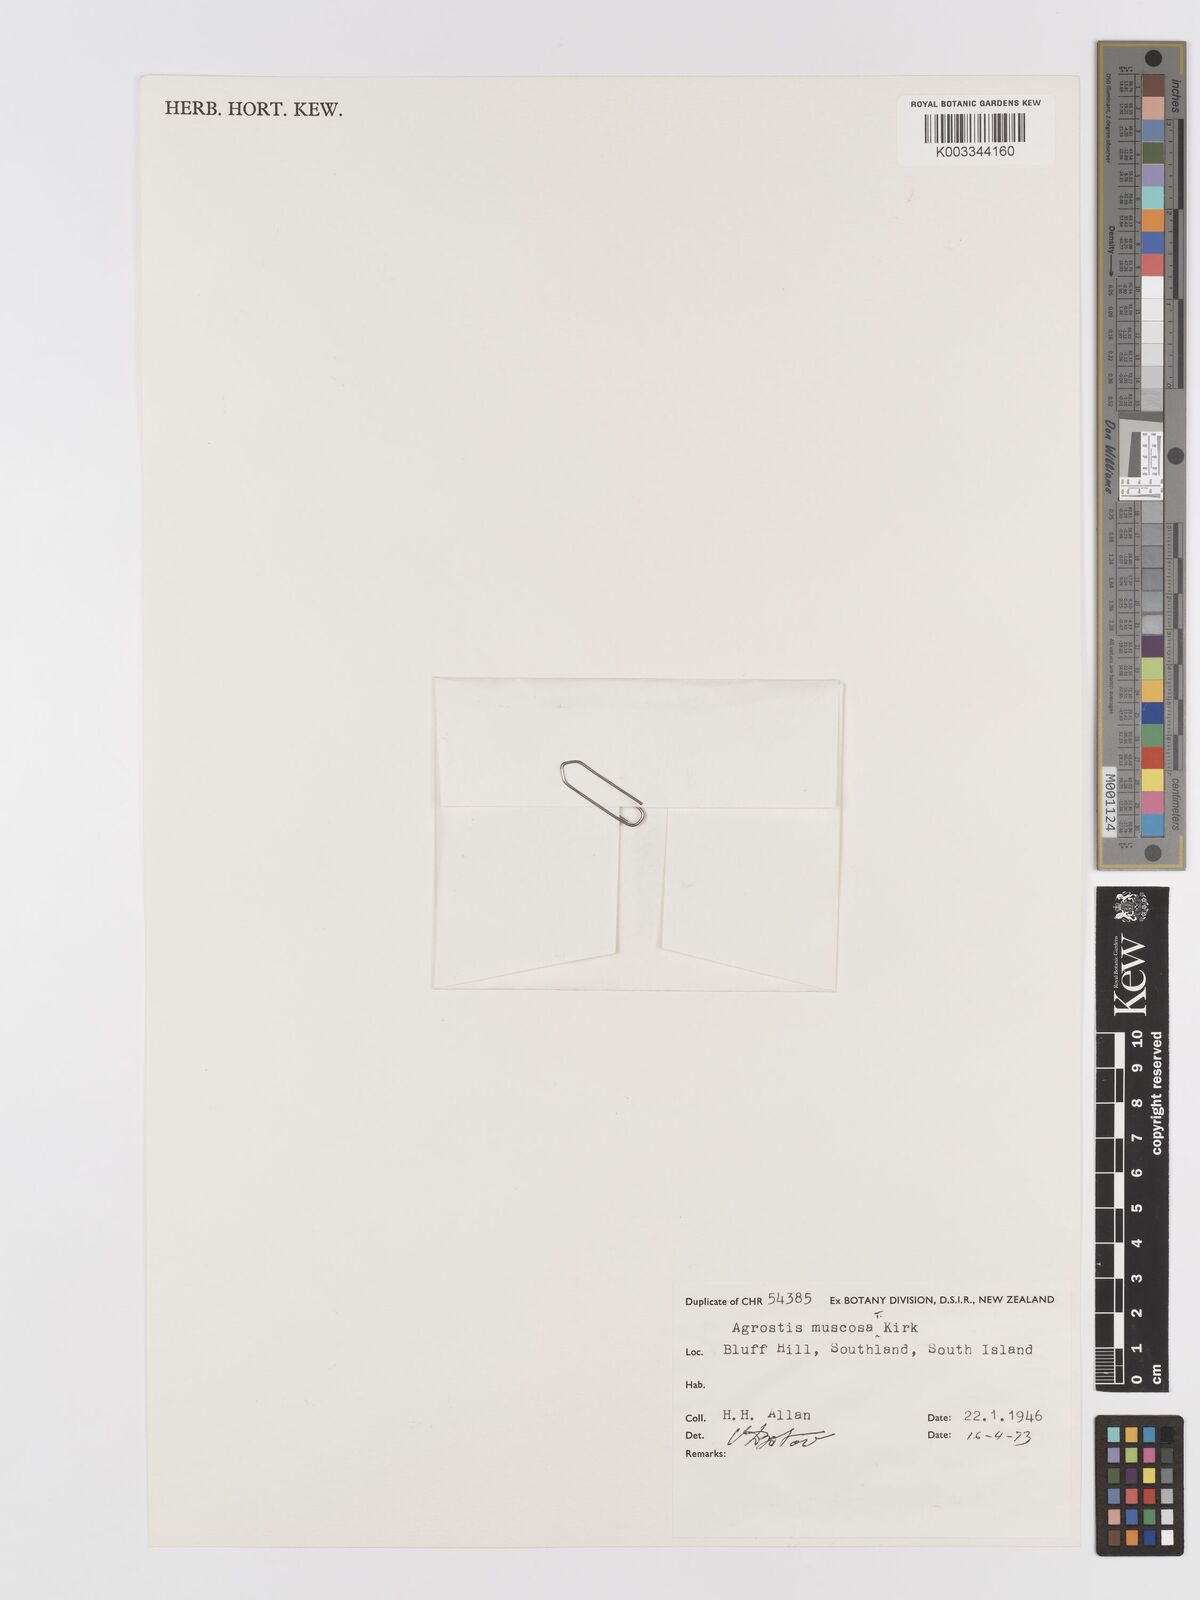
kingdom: Plantae
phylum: Tracheophyta
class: Liliopsida
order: Poales
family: Poaceae
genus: Agrostis
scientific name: Agrostis muscosa
